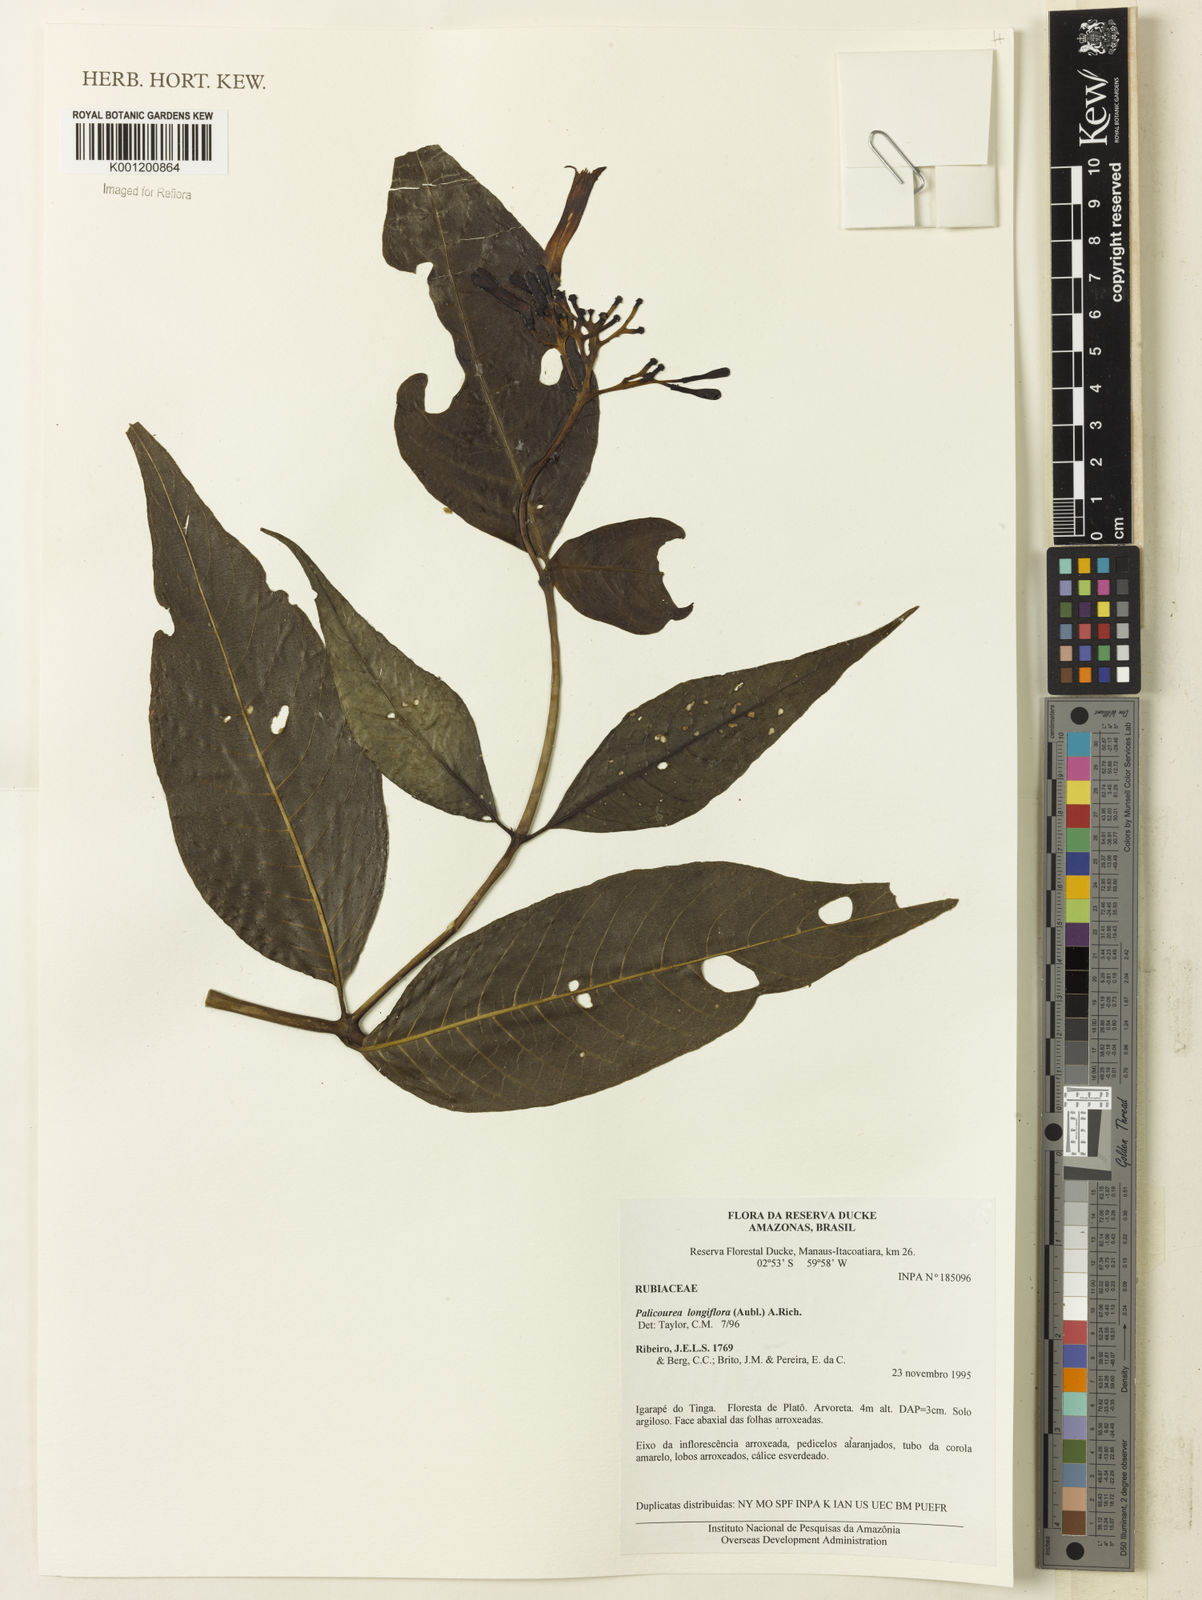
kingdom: Plantae
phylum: Tracheophyta
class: Magnoliopsida
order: Gentianales
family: Rubiaceae
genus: Palicourea
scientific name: Palicourea longiflora
